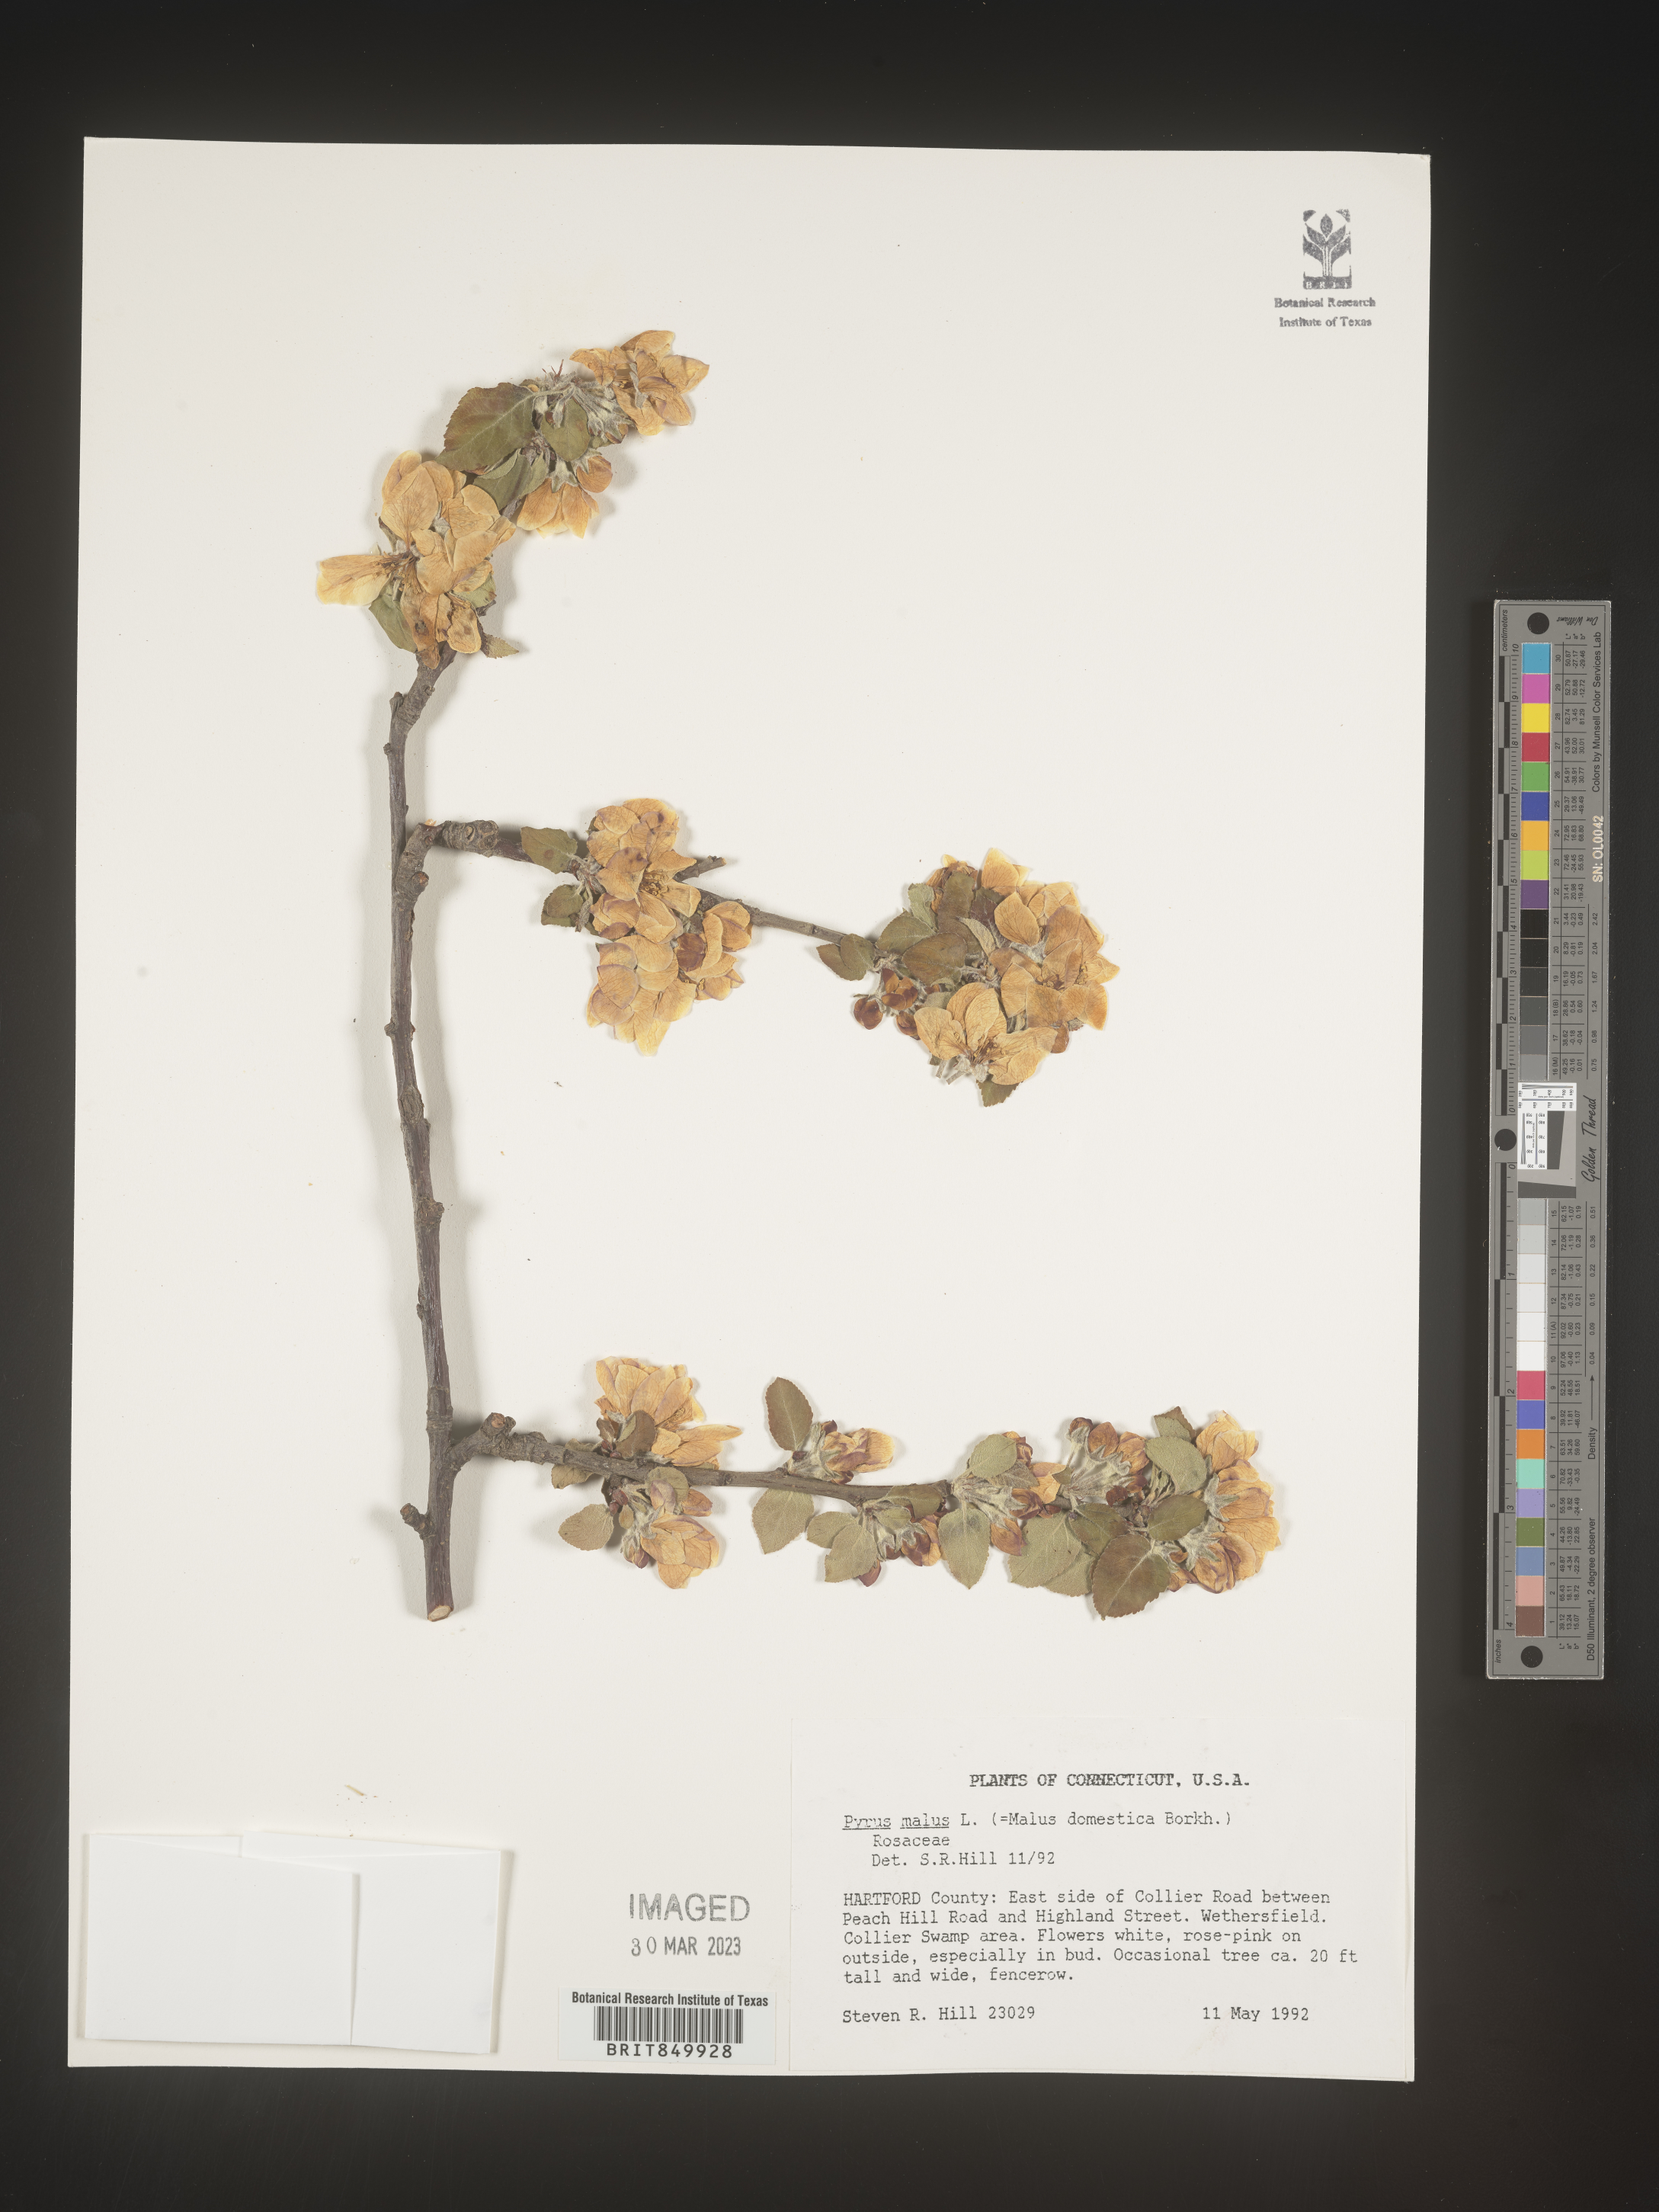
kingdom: Plantae
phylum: Tracheophyta
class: Magnoliopsida
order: Rosales
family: Rosaceae
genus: Pyrus
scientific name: Pyrus
